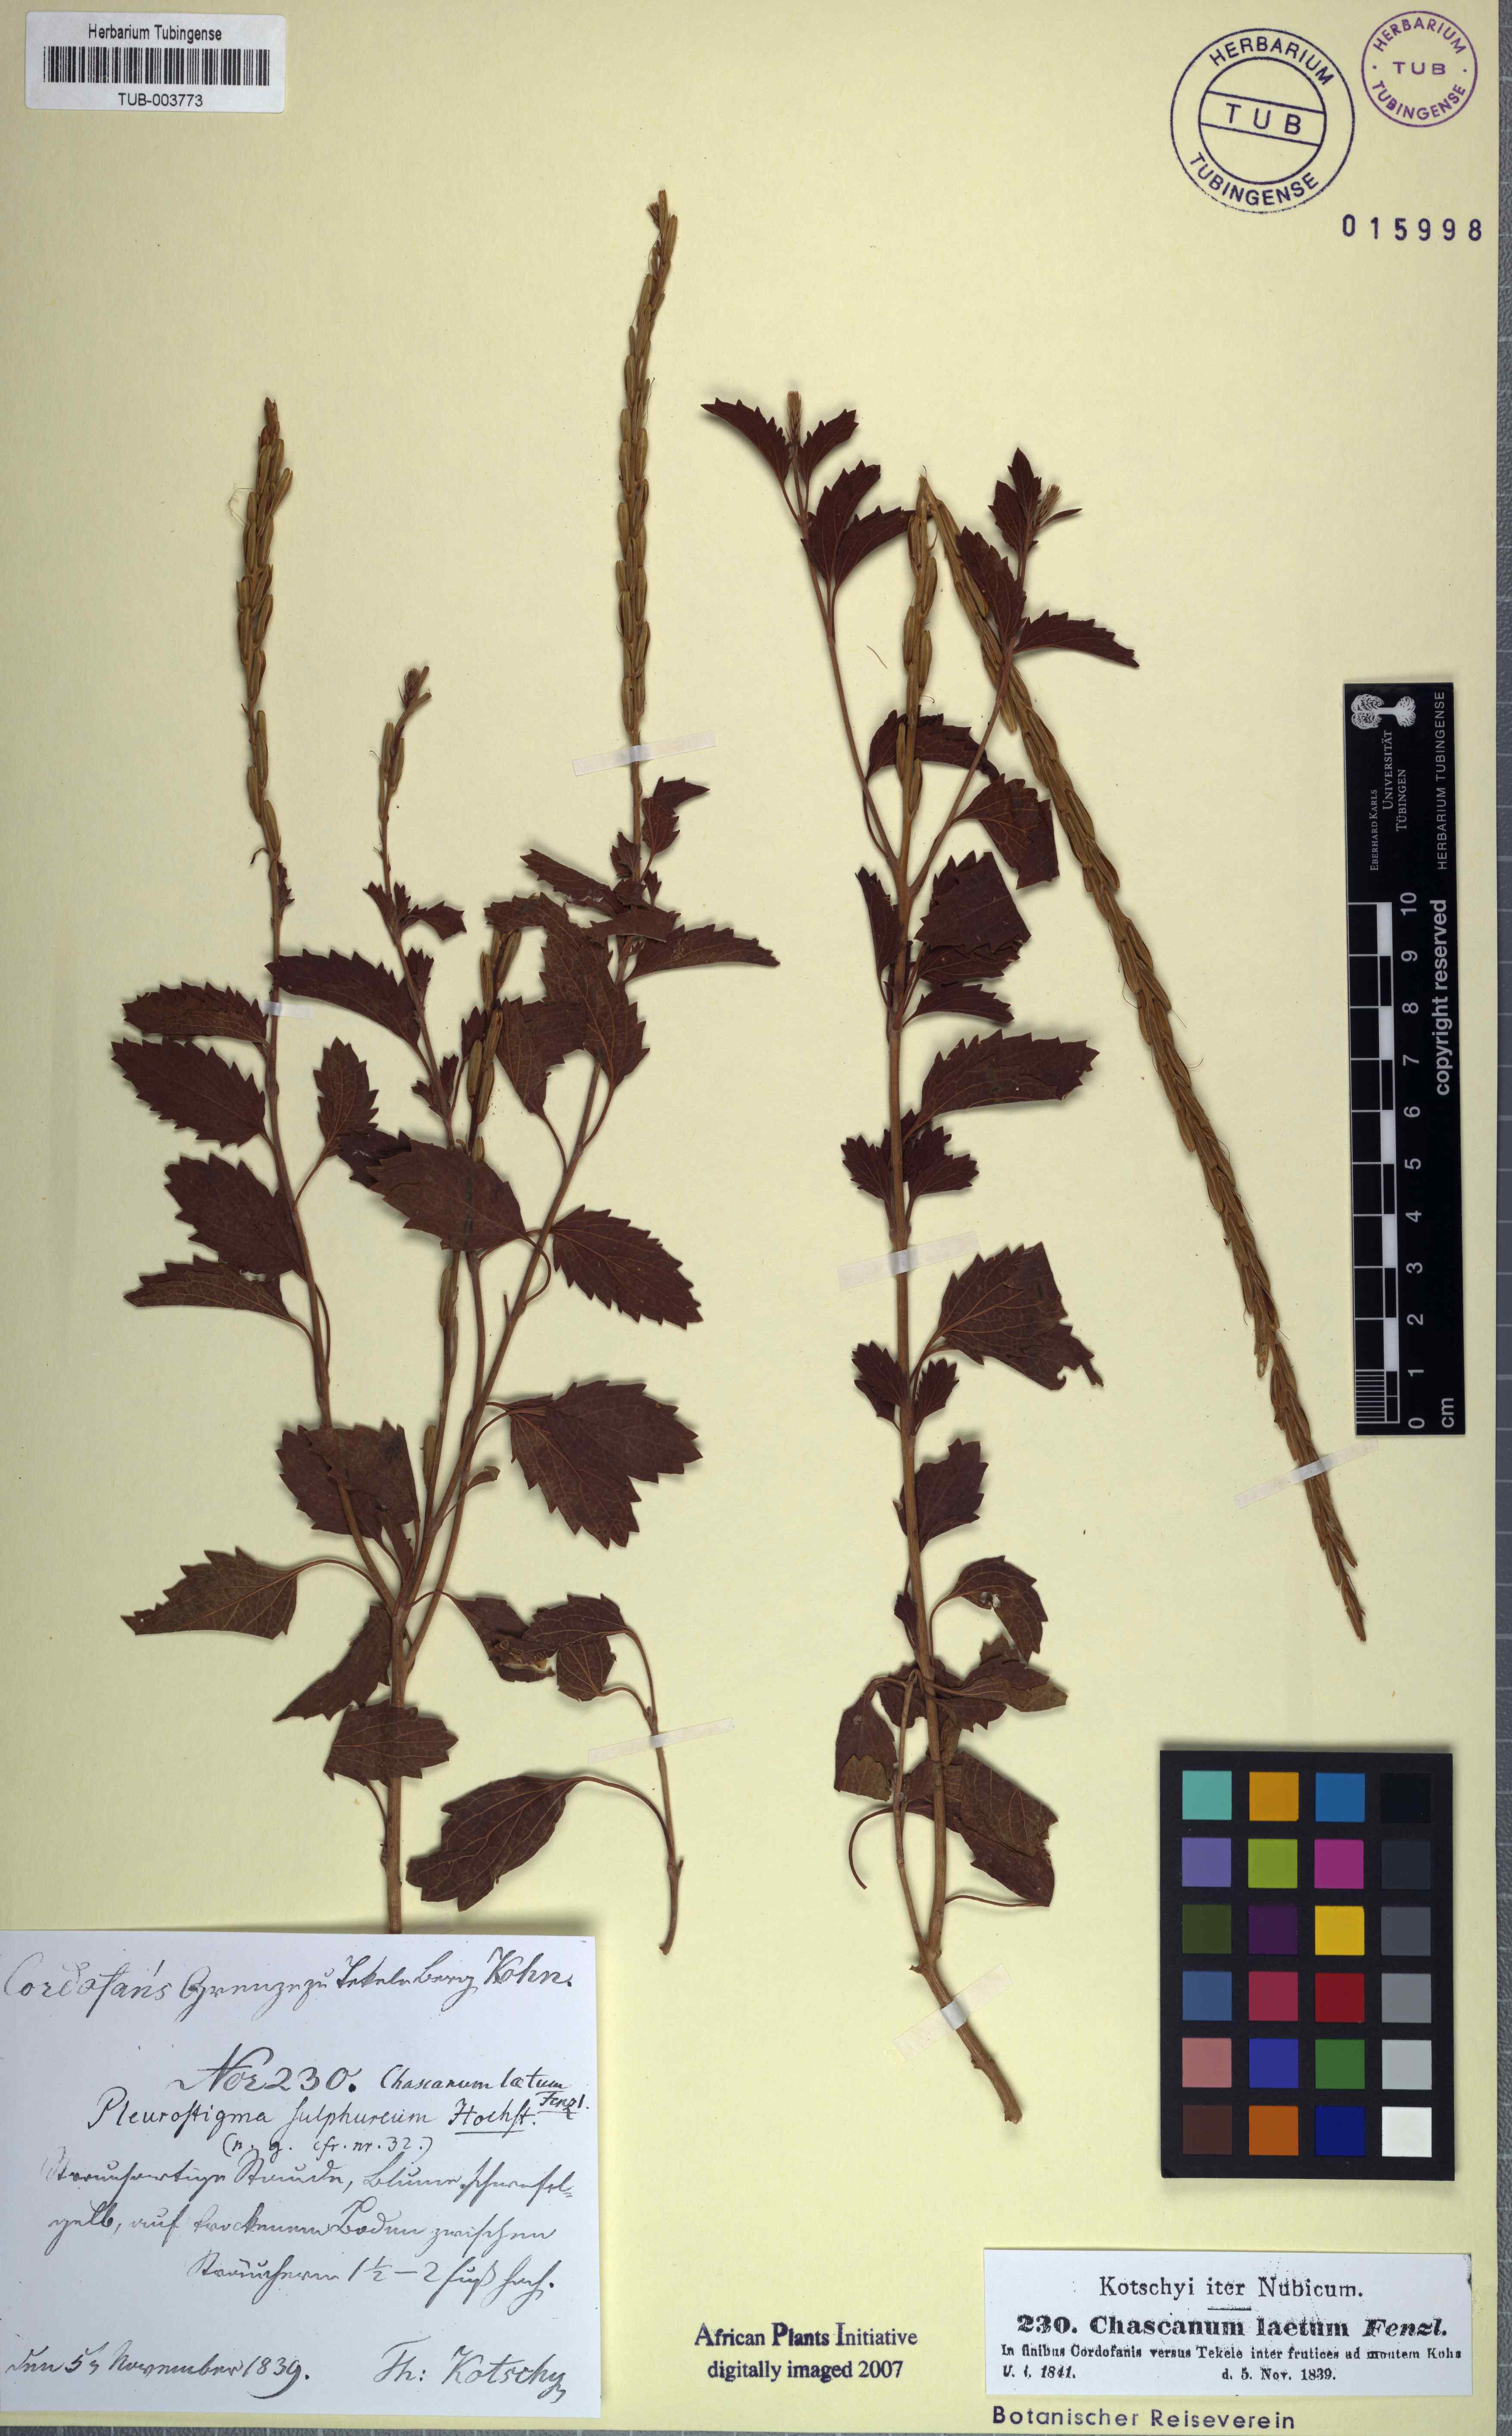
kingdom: Plantae
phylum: Tracheophyta
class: Magnoliopsida
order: Lamiales
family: Verbenaceae
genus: Chascanum
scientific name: Chascanum laetum
